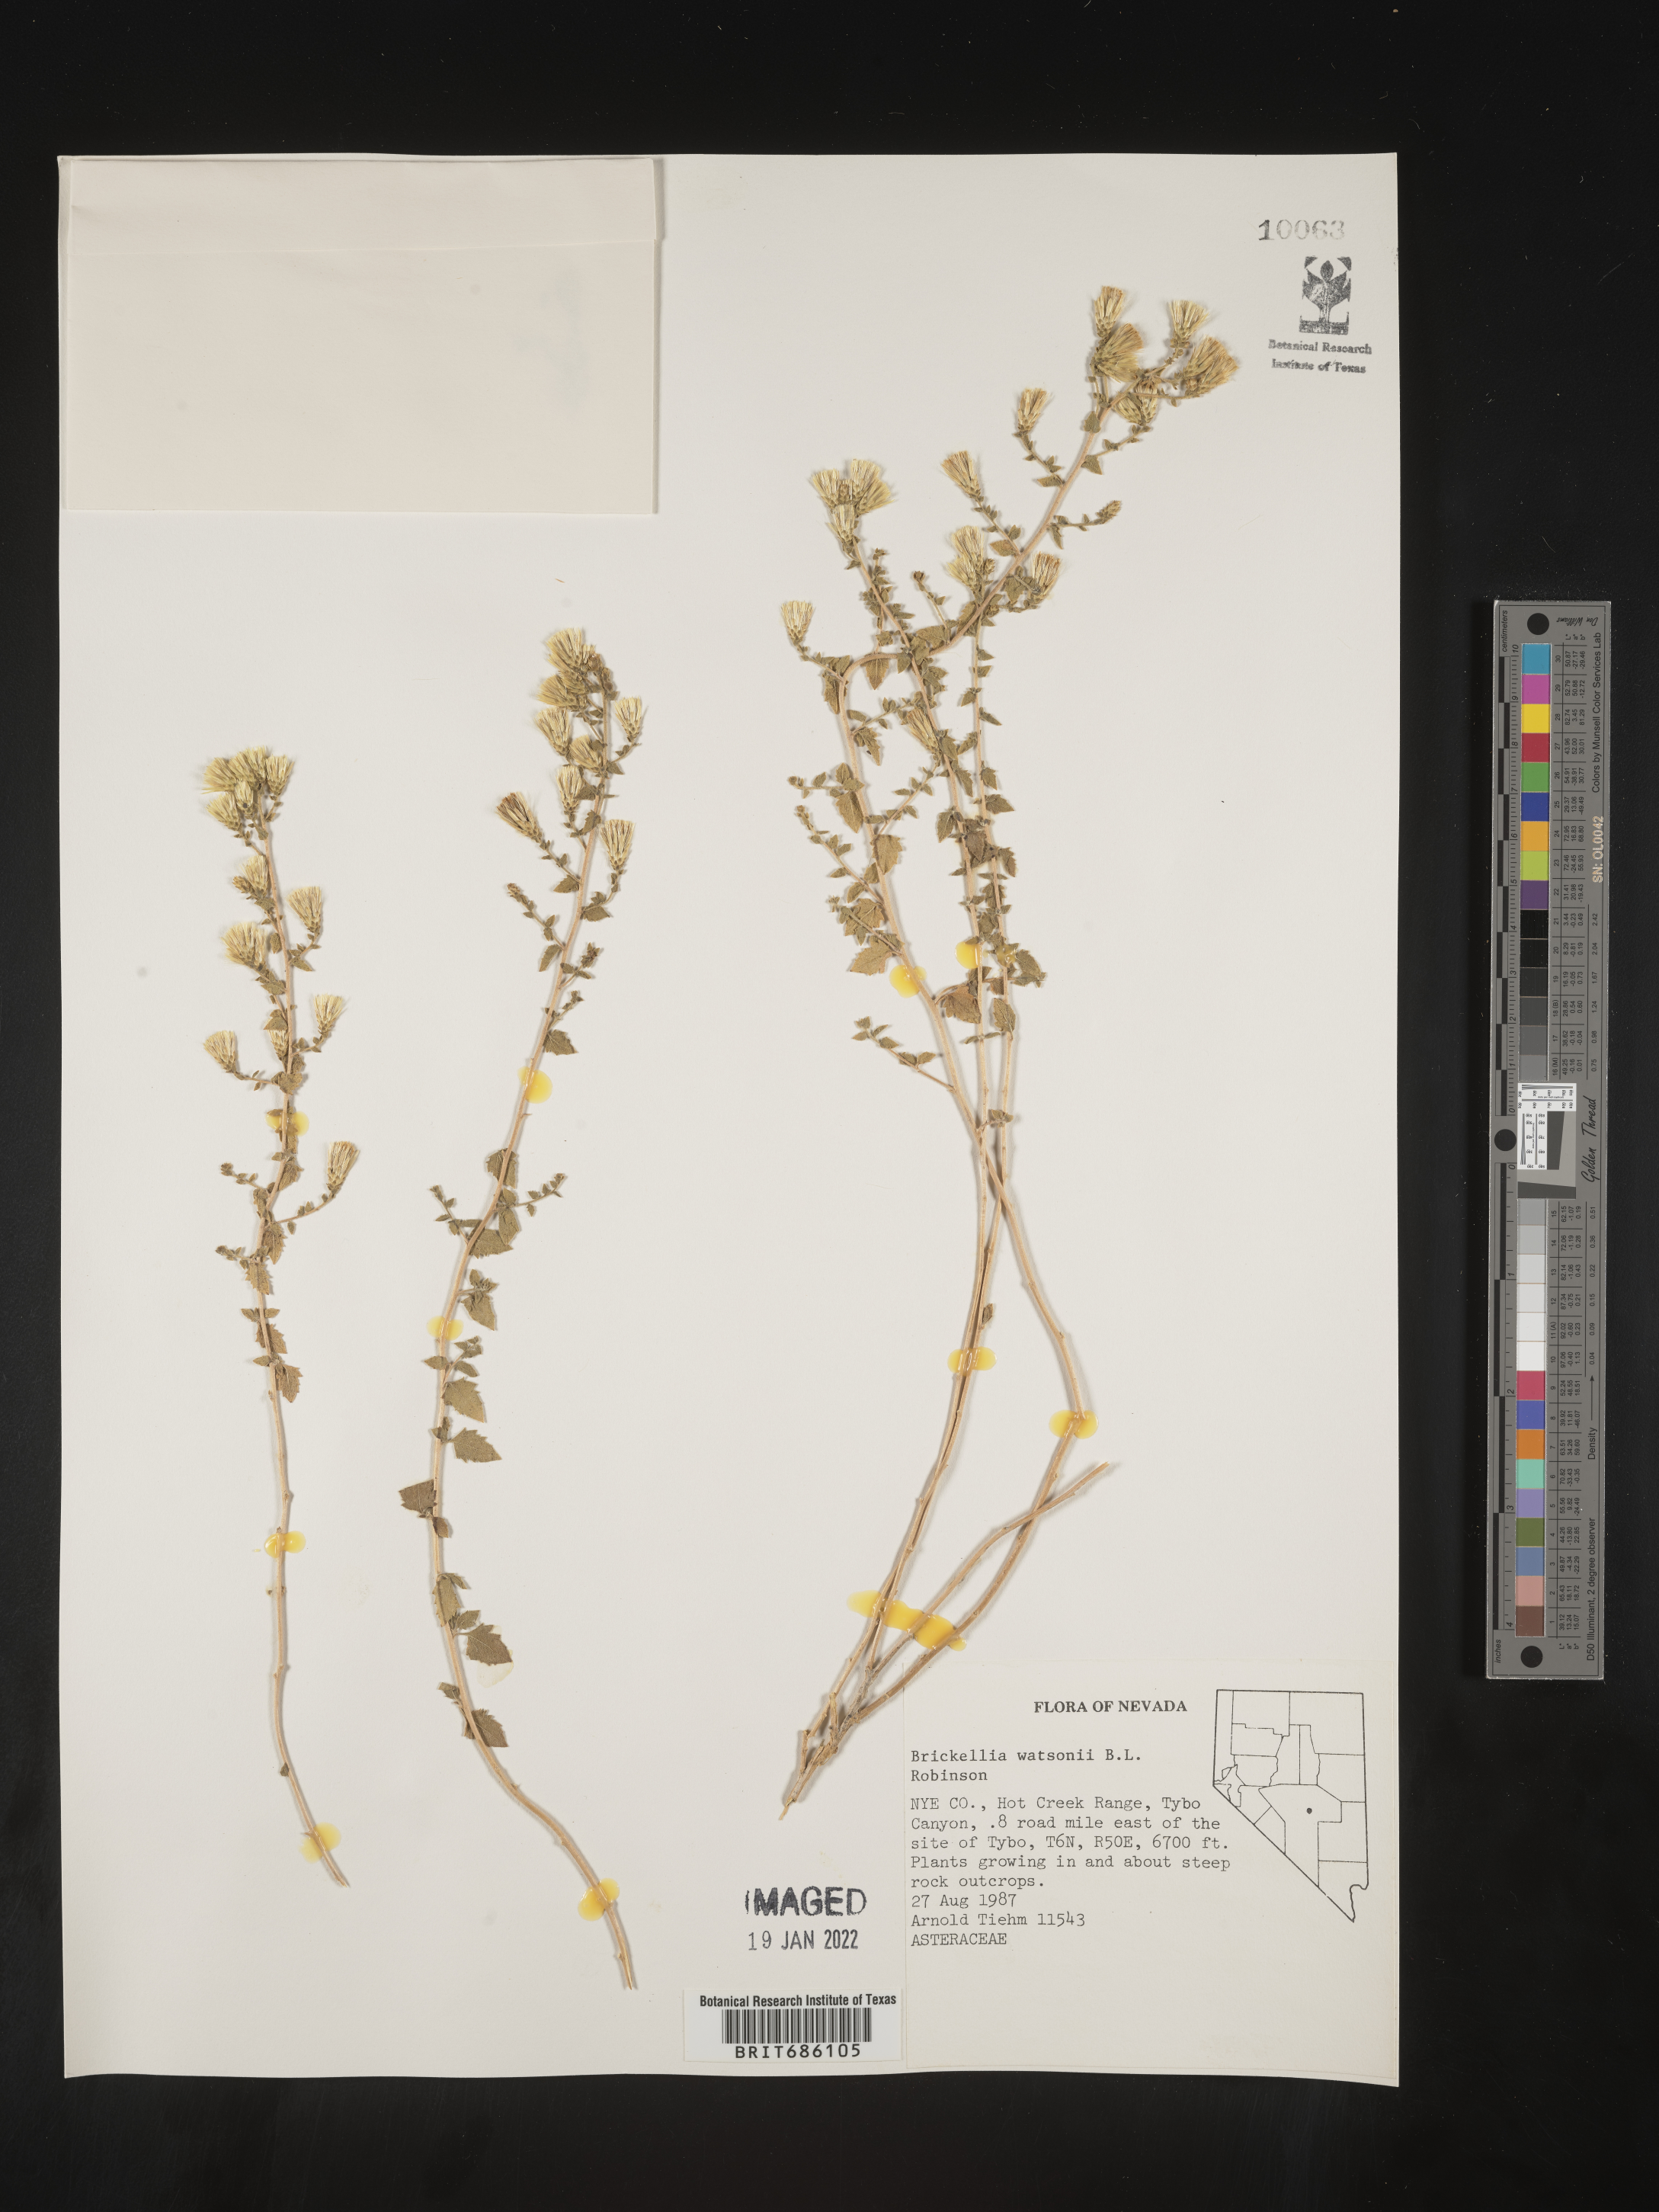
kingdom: Plantae
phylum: Tracheophyta
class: Magnoliopsida
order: Asterales
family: Asteraceae
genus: Brickellia
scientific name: Brickellia microphylla
